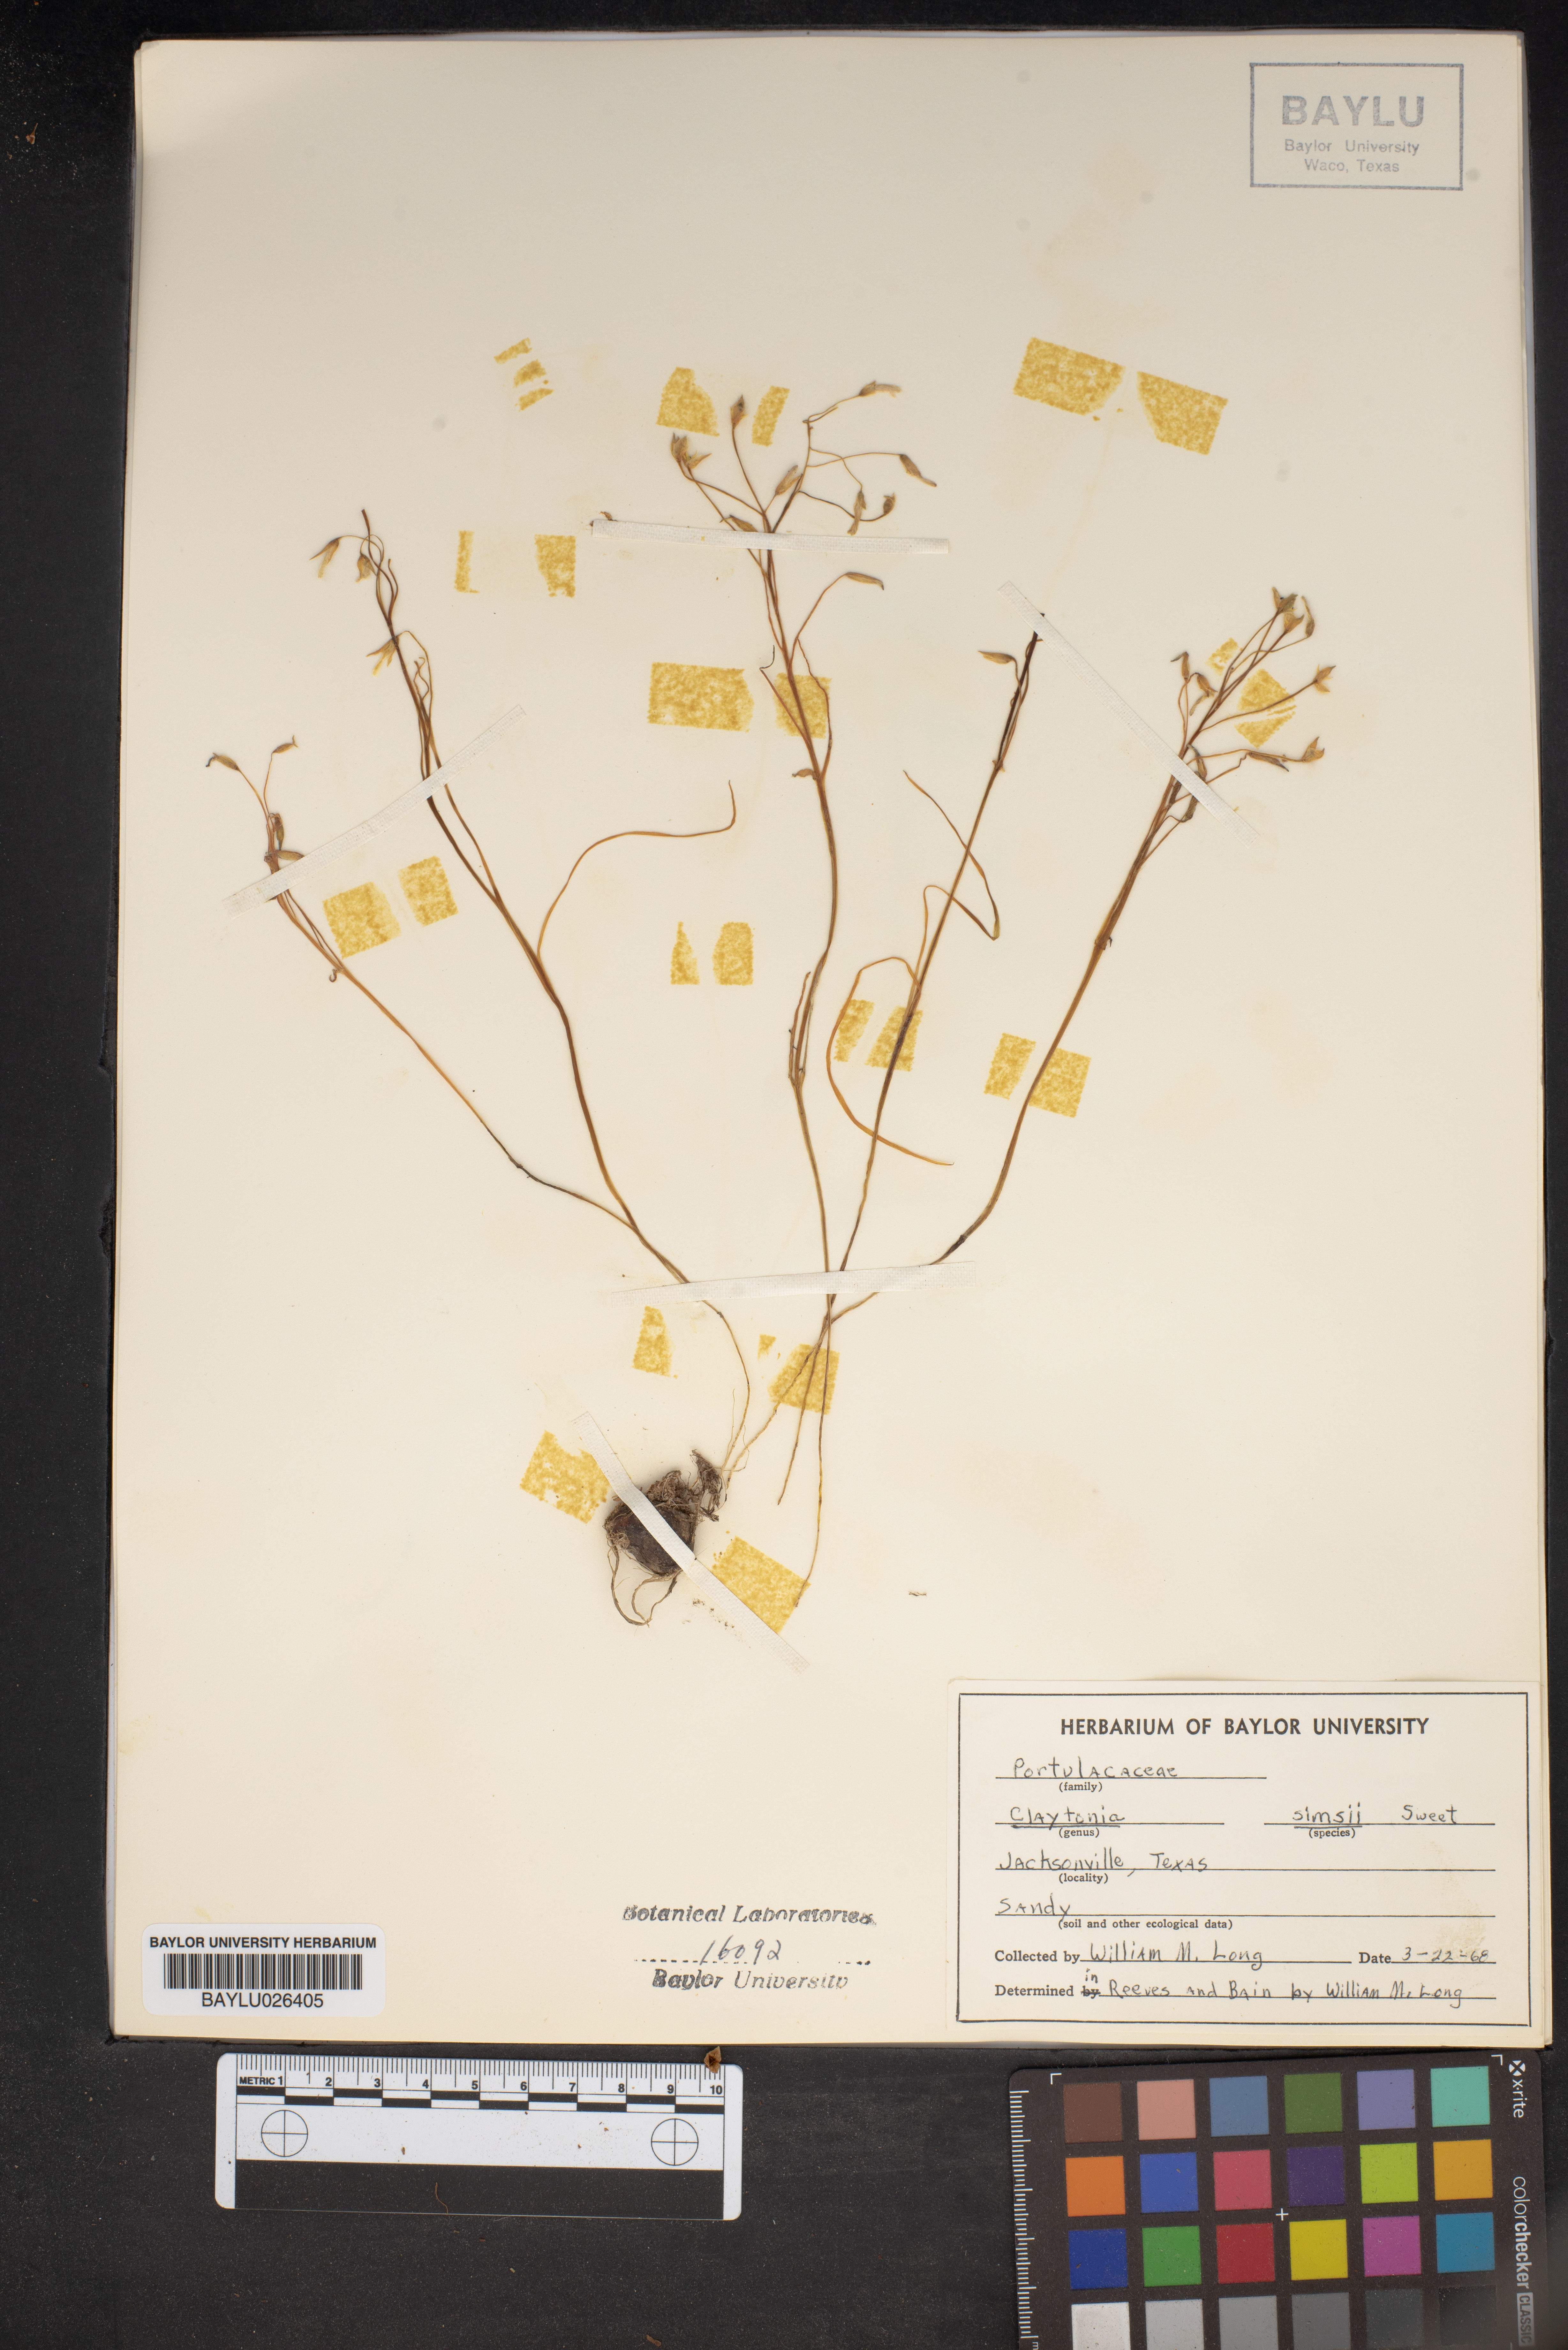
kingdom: Plantae
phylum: Tracheophyta
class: Magnoliopsida
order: Caryophyllales
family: Montiaceae
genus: Claytonia
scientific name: Claytonia virginica
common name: Virginia springbeauty
